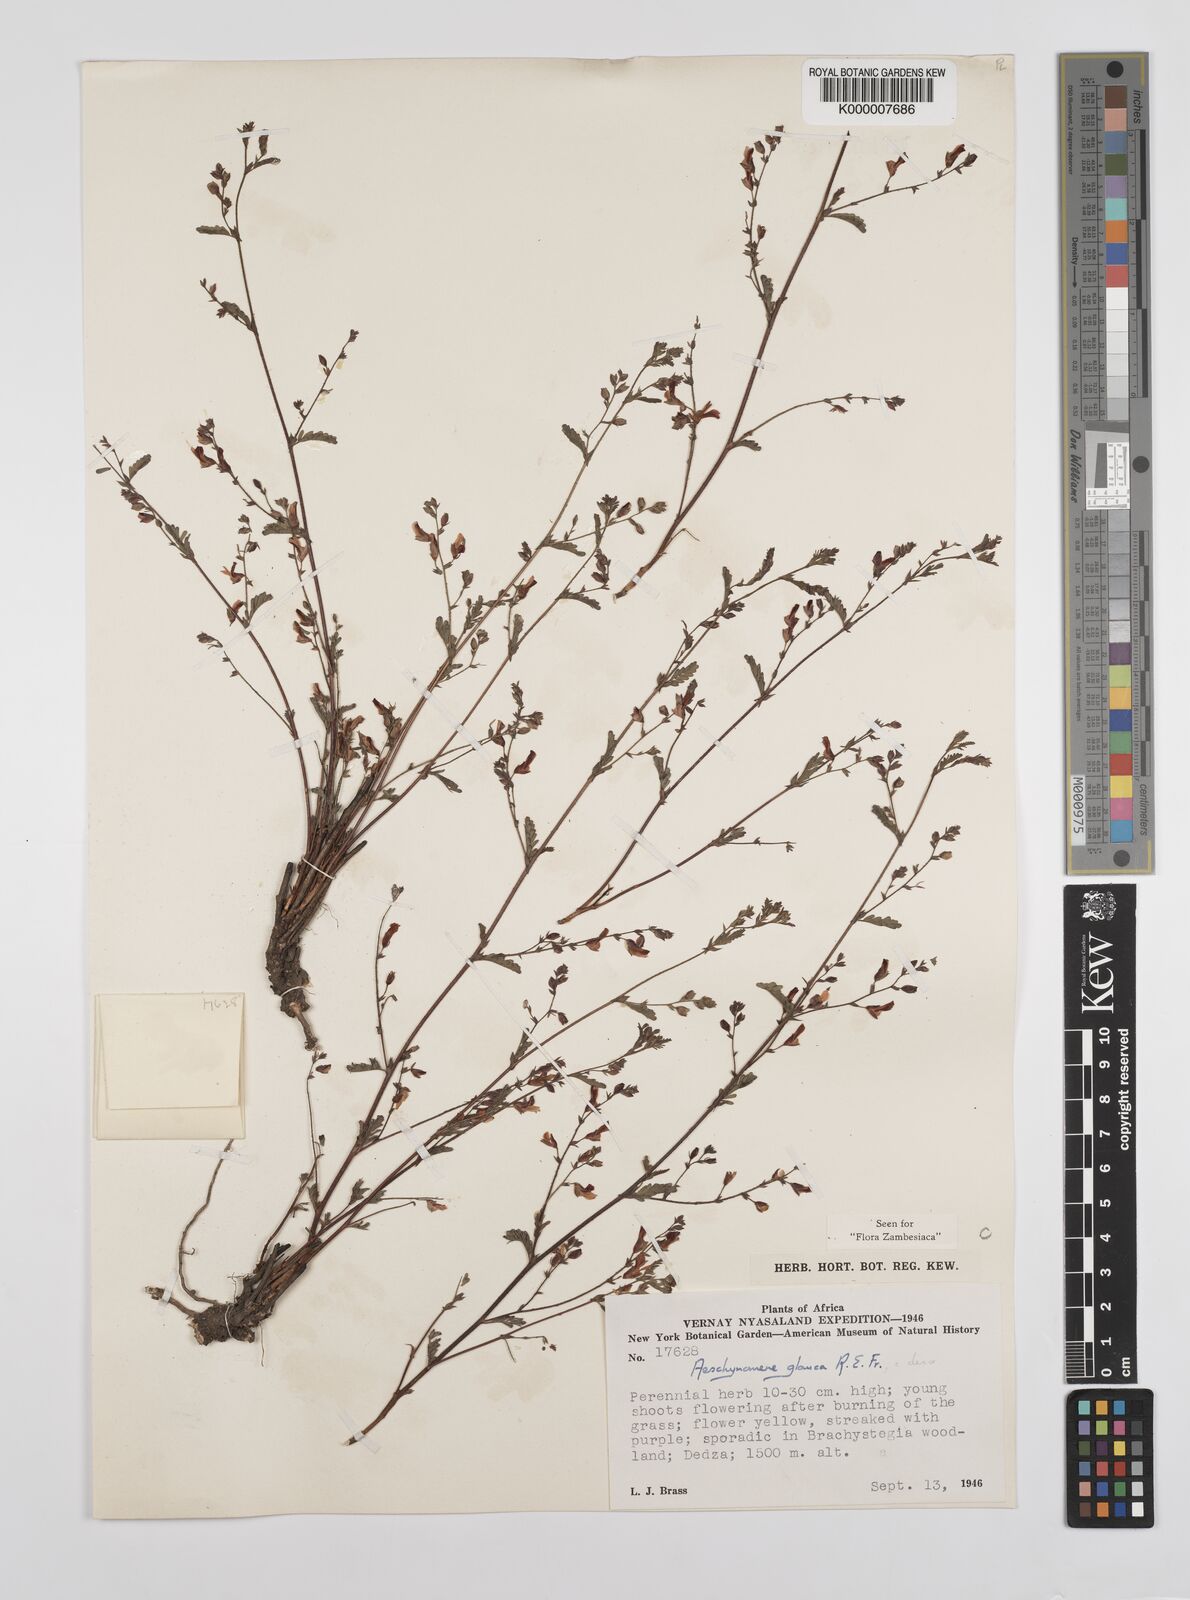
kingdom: Plantae
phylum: Tracheophyta
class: Magnoliopsida
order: Fabales
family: Fabaceae
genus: Aeschynomene
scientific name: Aeschynomene glauca
